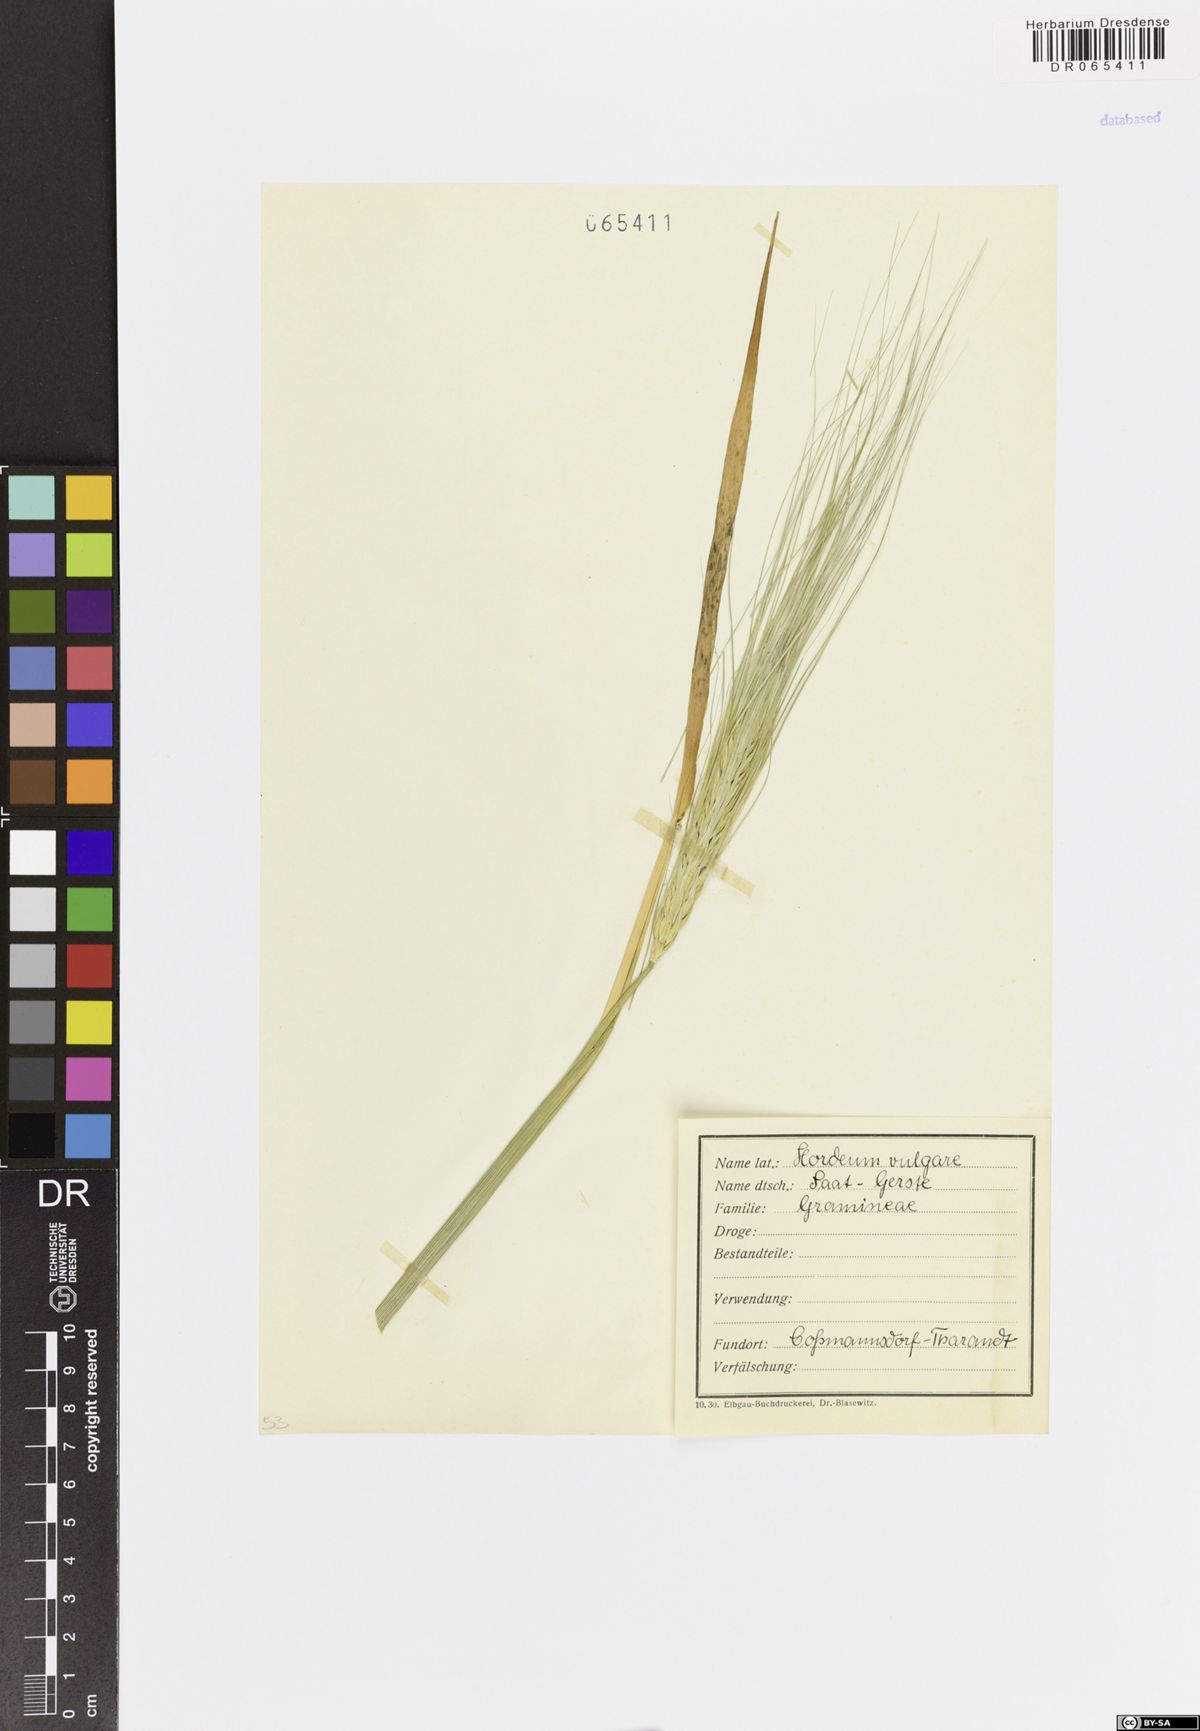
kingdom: Plantae
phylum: Tracheophyta
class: Liliopsida
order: Poales
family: Poaceae
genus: Hordeum
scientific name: Hordeum vulgare
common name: Common barley
